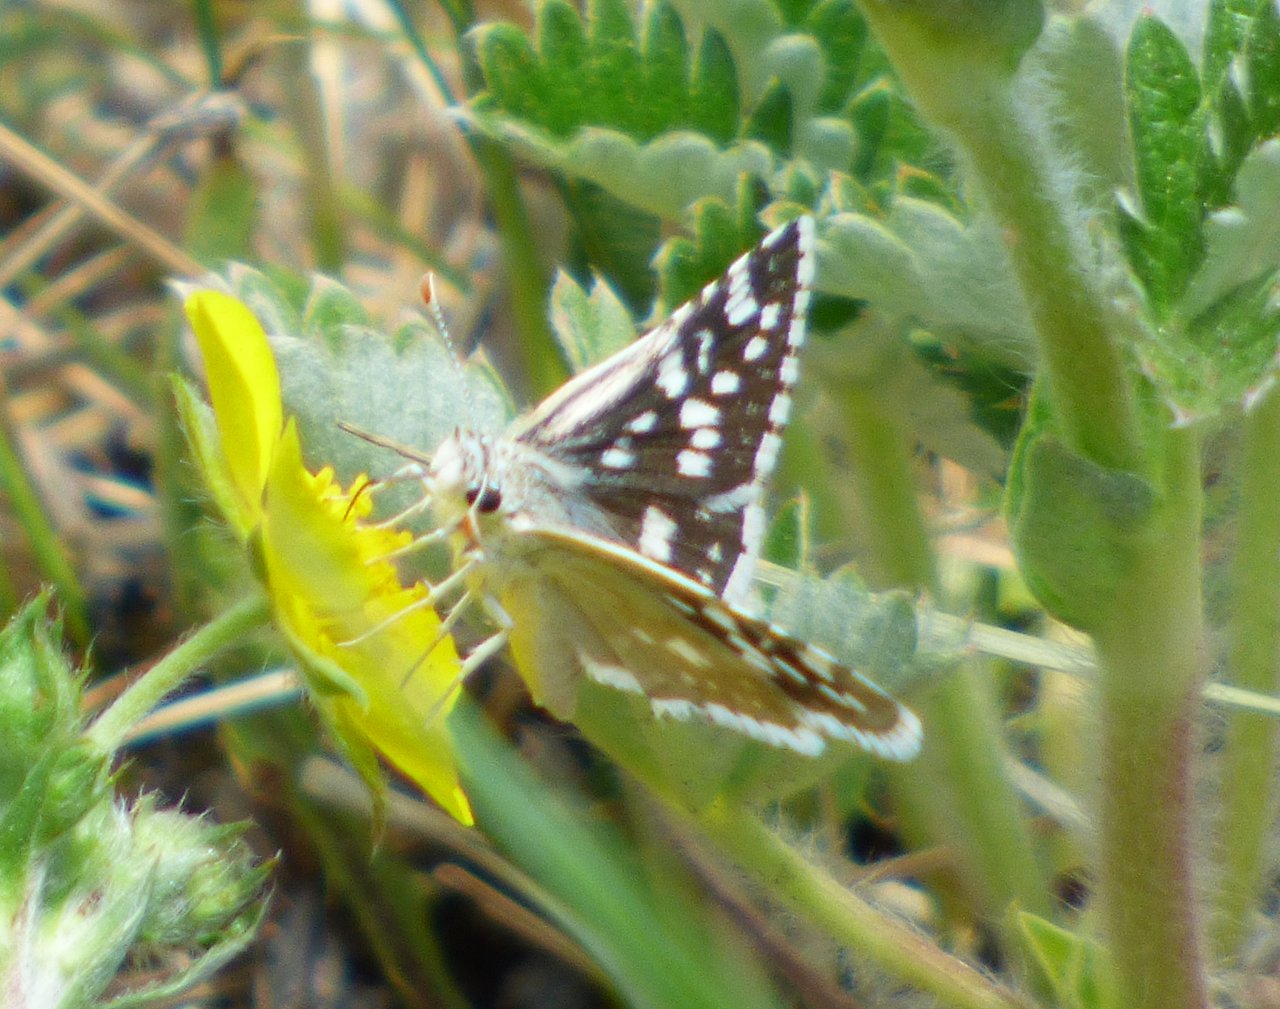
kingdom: Animalia
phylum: Arthropoda
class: Insecta
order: Lepidoptera
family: Hesperiidae
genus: Pyrgus
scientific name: Pyrgus scriptura
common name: Small Checkered-Skipper
